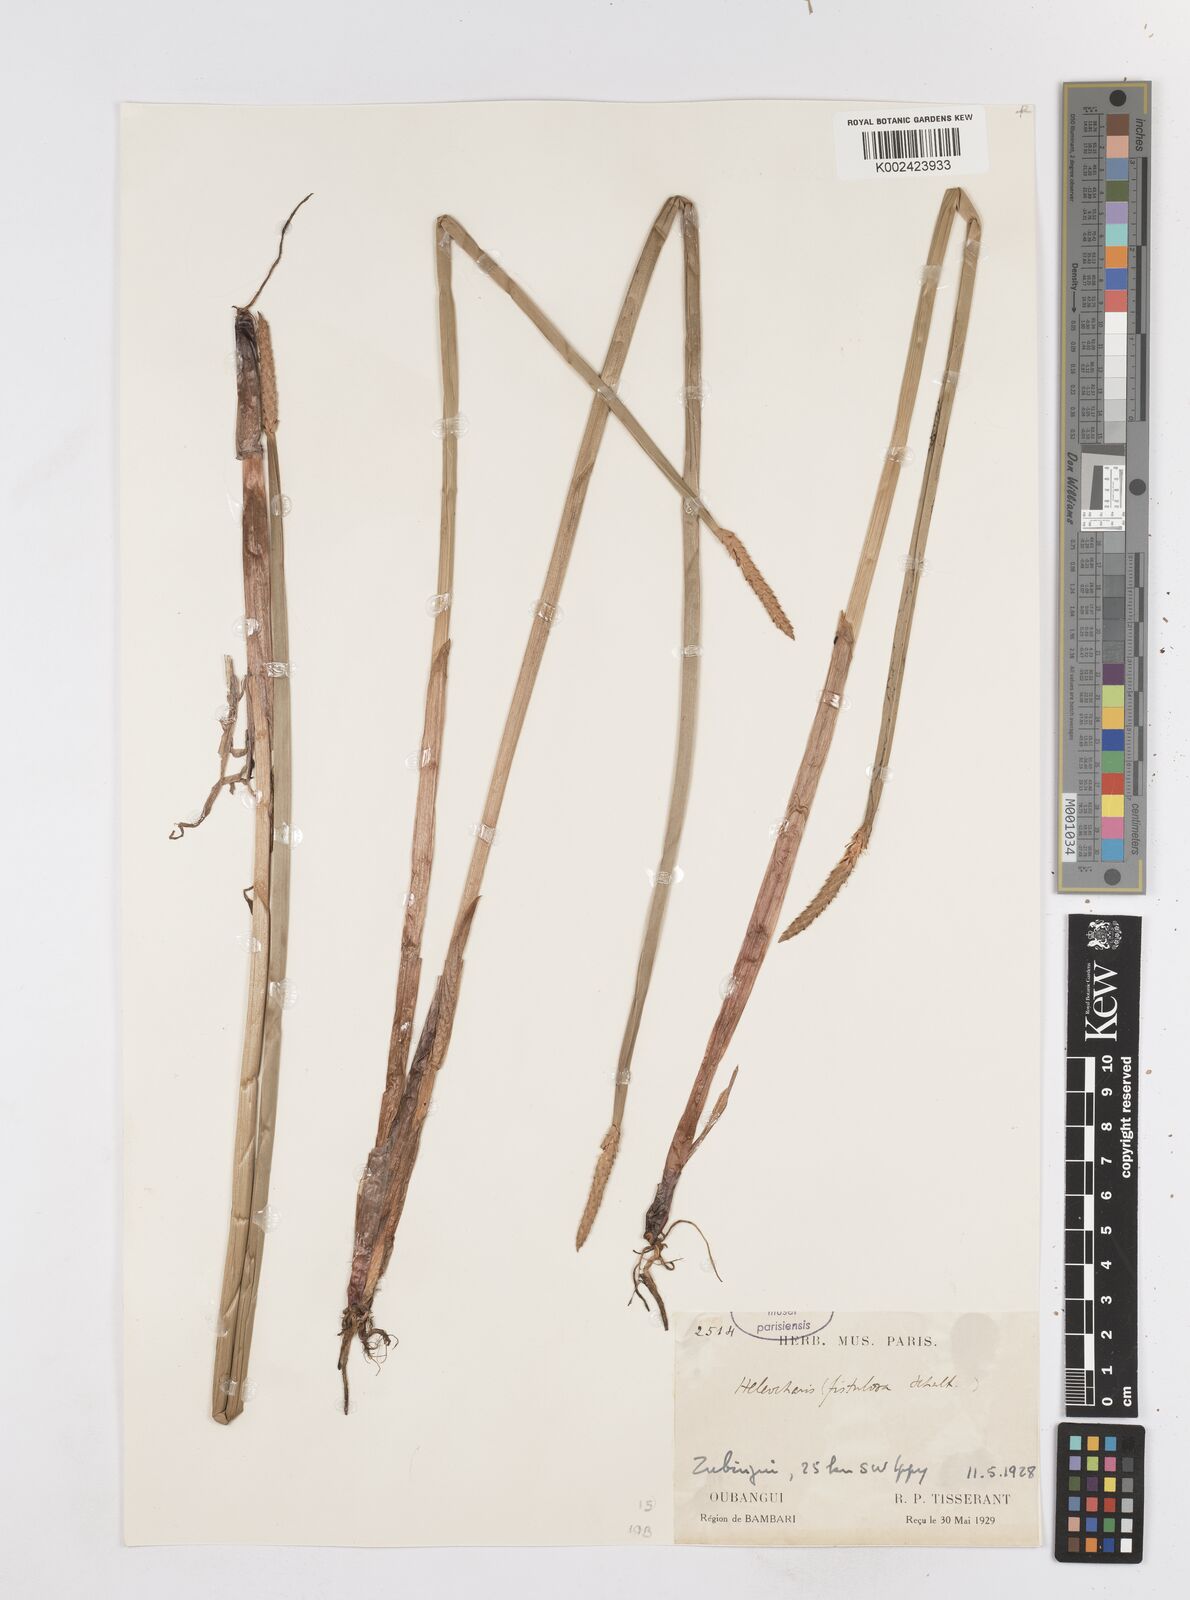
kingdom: Plantae
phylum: Tracheophyta
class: Liliopsida
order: Poales
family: Cyperaceae
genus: Eleocharis
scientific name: Eleocharis acutangula
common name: Acute spikerush
